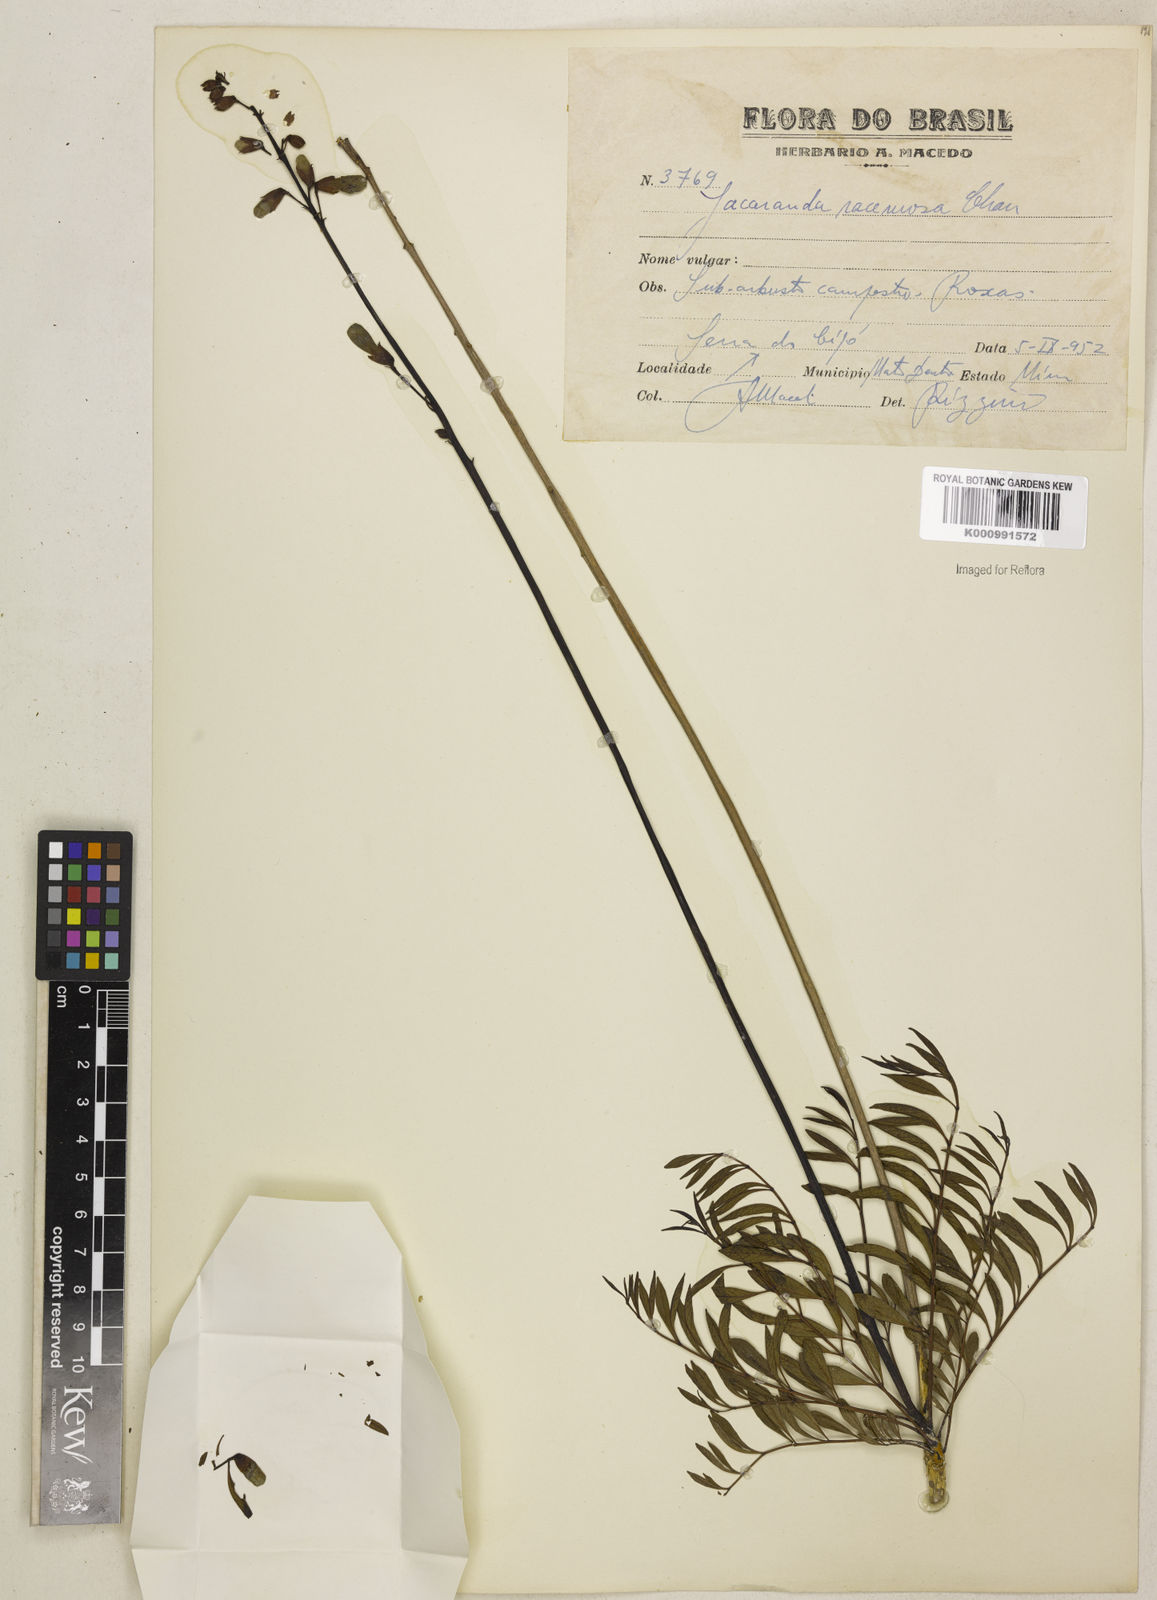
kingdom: Plantae
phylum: Tracheophyta
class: Magnoliopsida
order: Lamiales
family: Bignoniaceae
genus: Jacaranda
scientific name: Jacaranda racemosa
